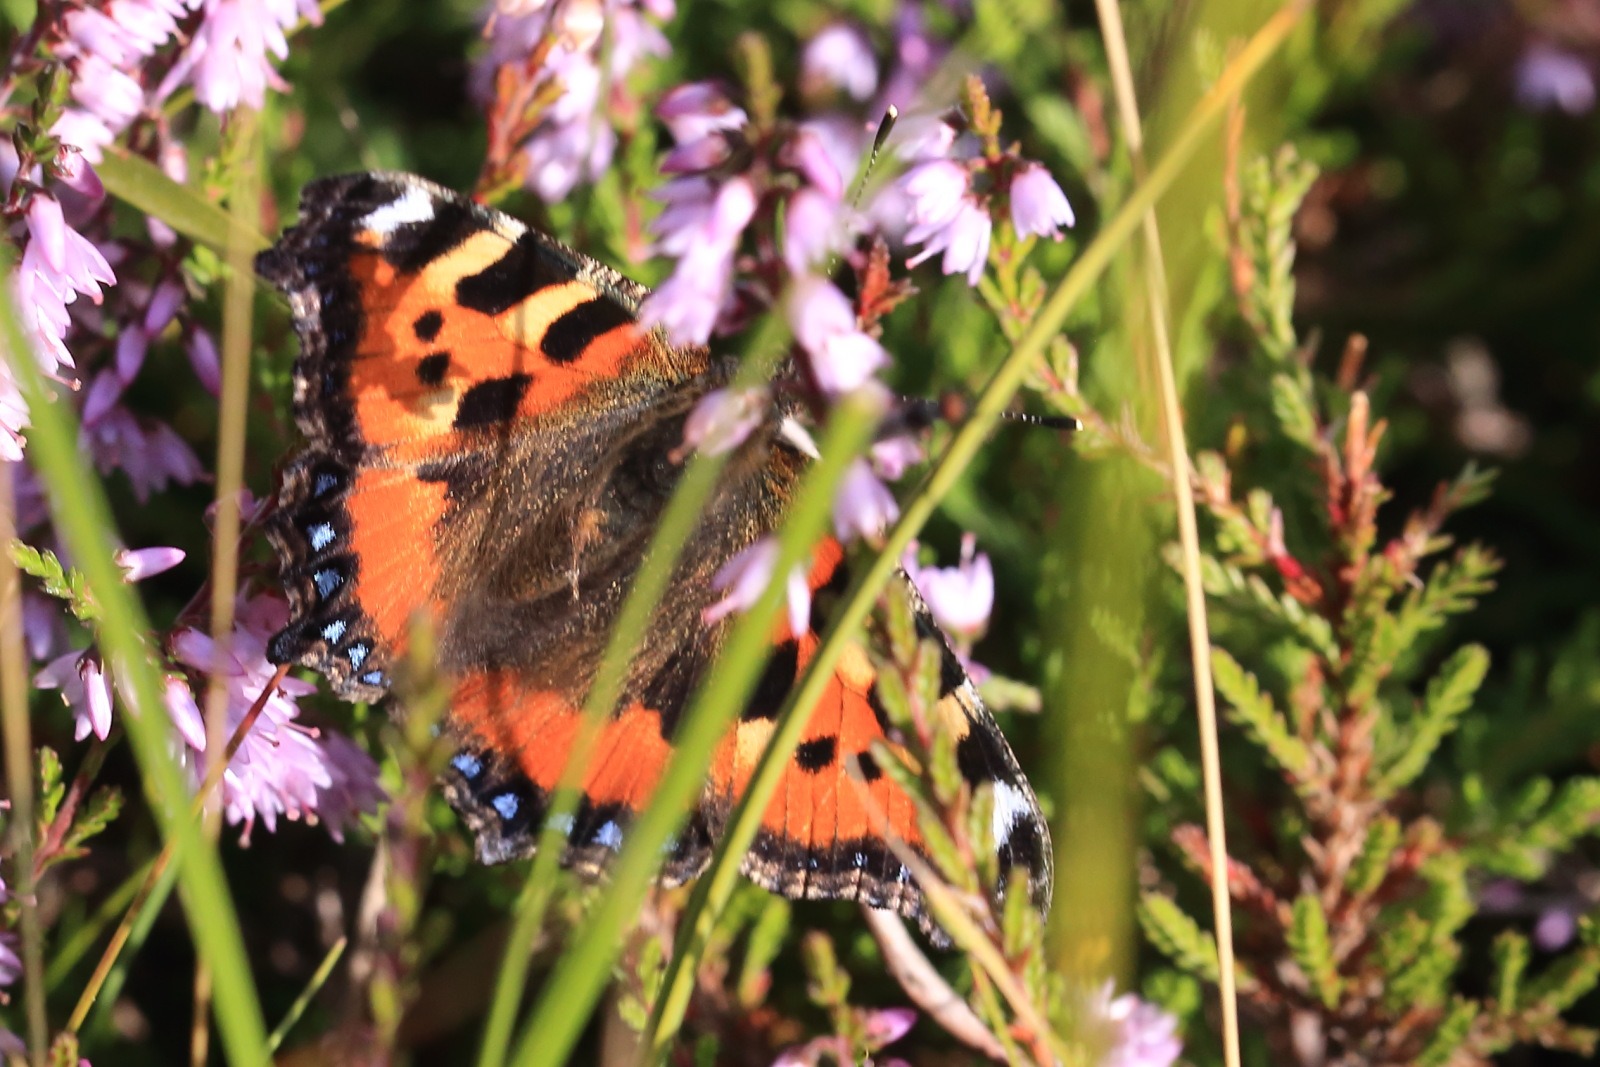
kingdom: Animalia
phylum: Arthropoda
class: Insecta
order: Lepidoptera
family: Nymphalidae
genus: Aglais
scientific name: Aglais urticae
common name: Nældens takvinge
